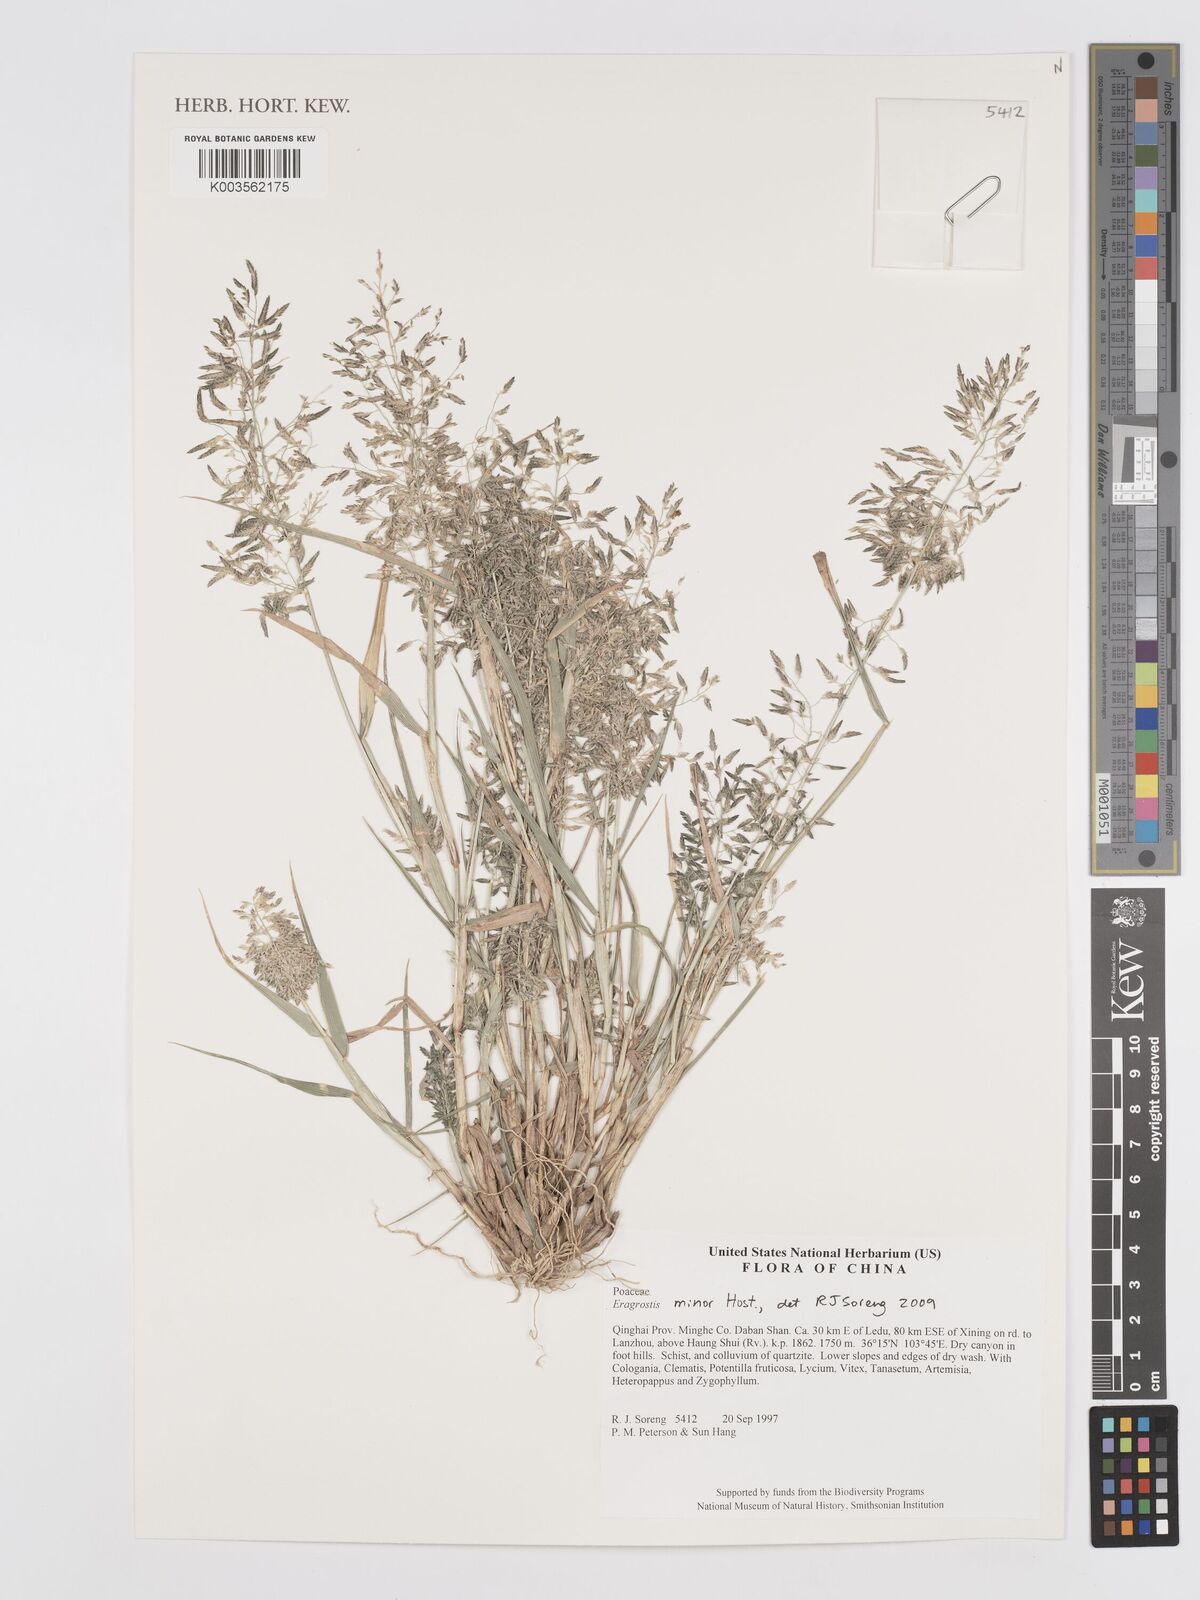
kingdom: Plantae
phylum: Tracheophyta
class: Liliopsida
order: Poales
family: Poaceae
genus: Eragrostis
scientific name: Eragrostis minor
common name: Small love-grass
